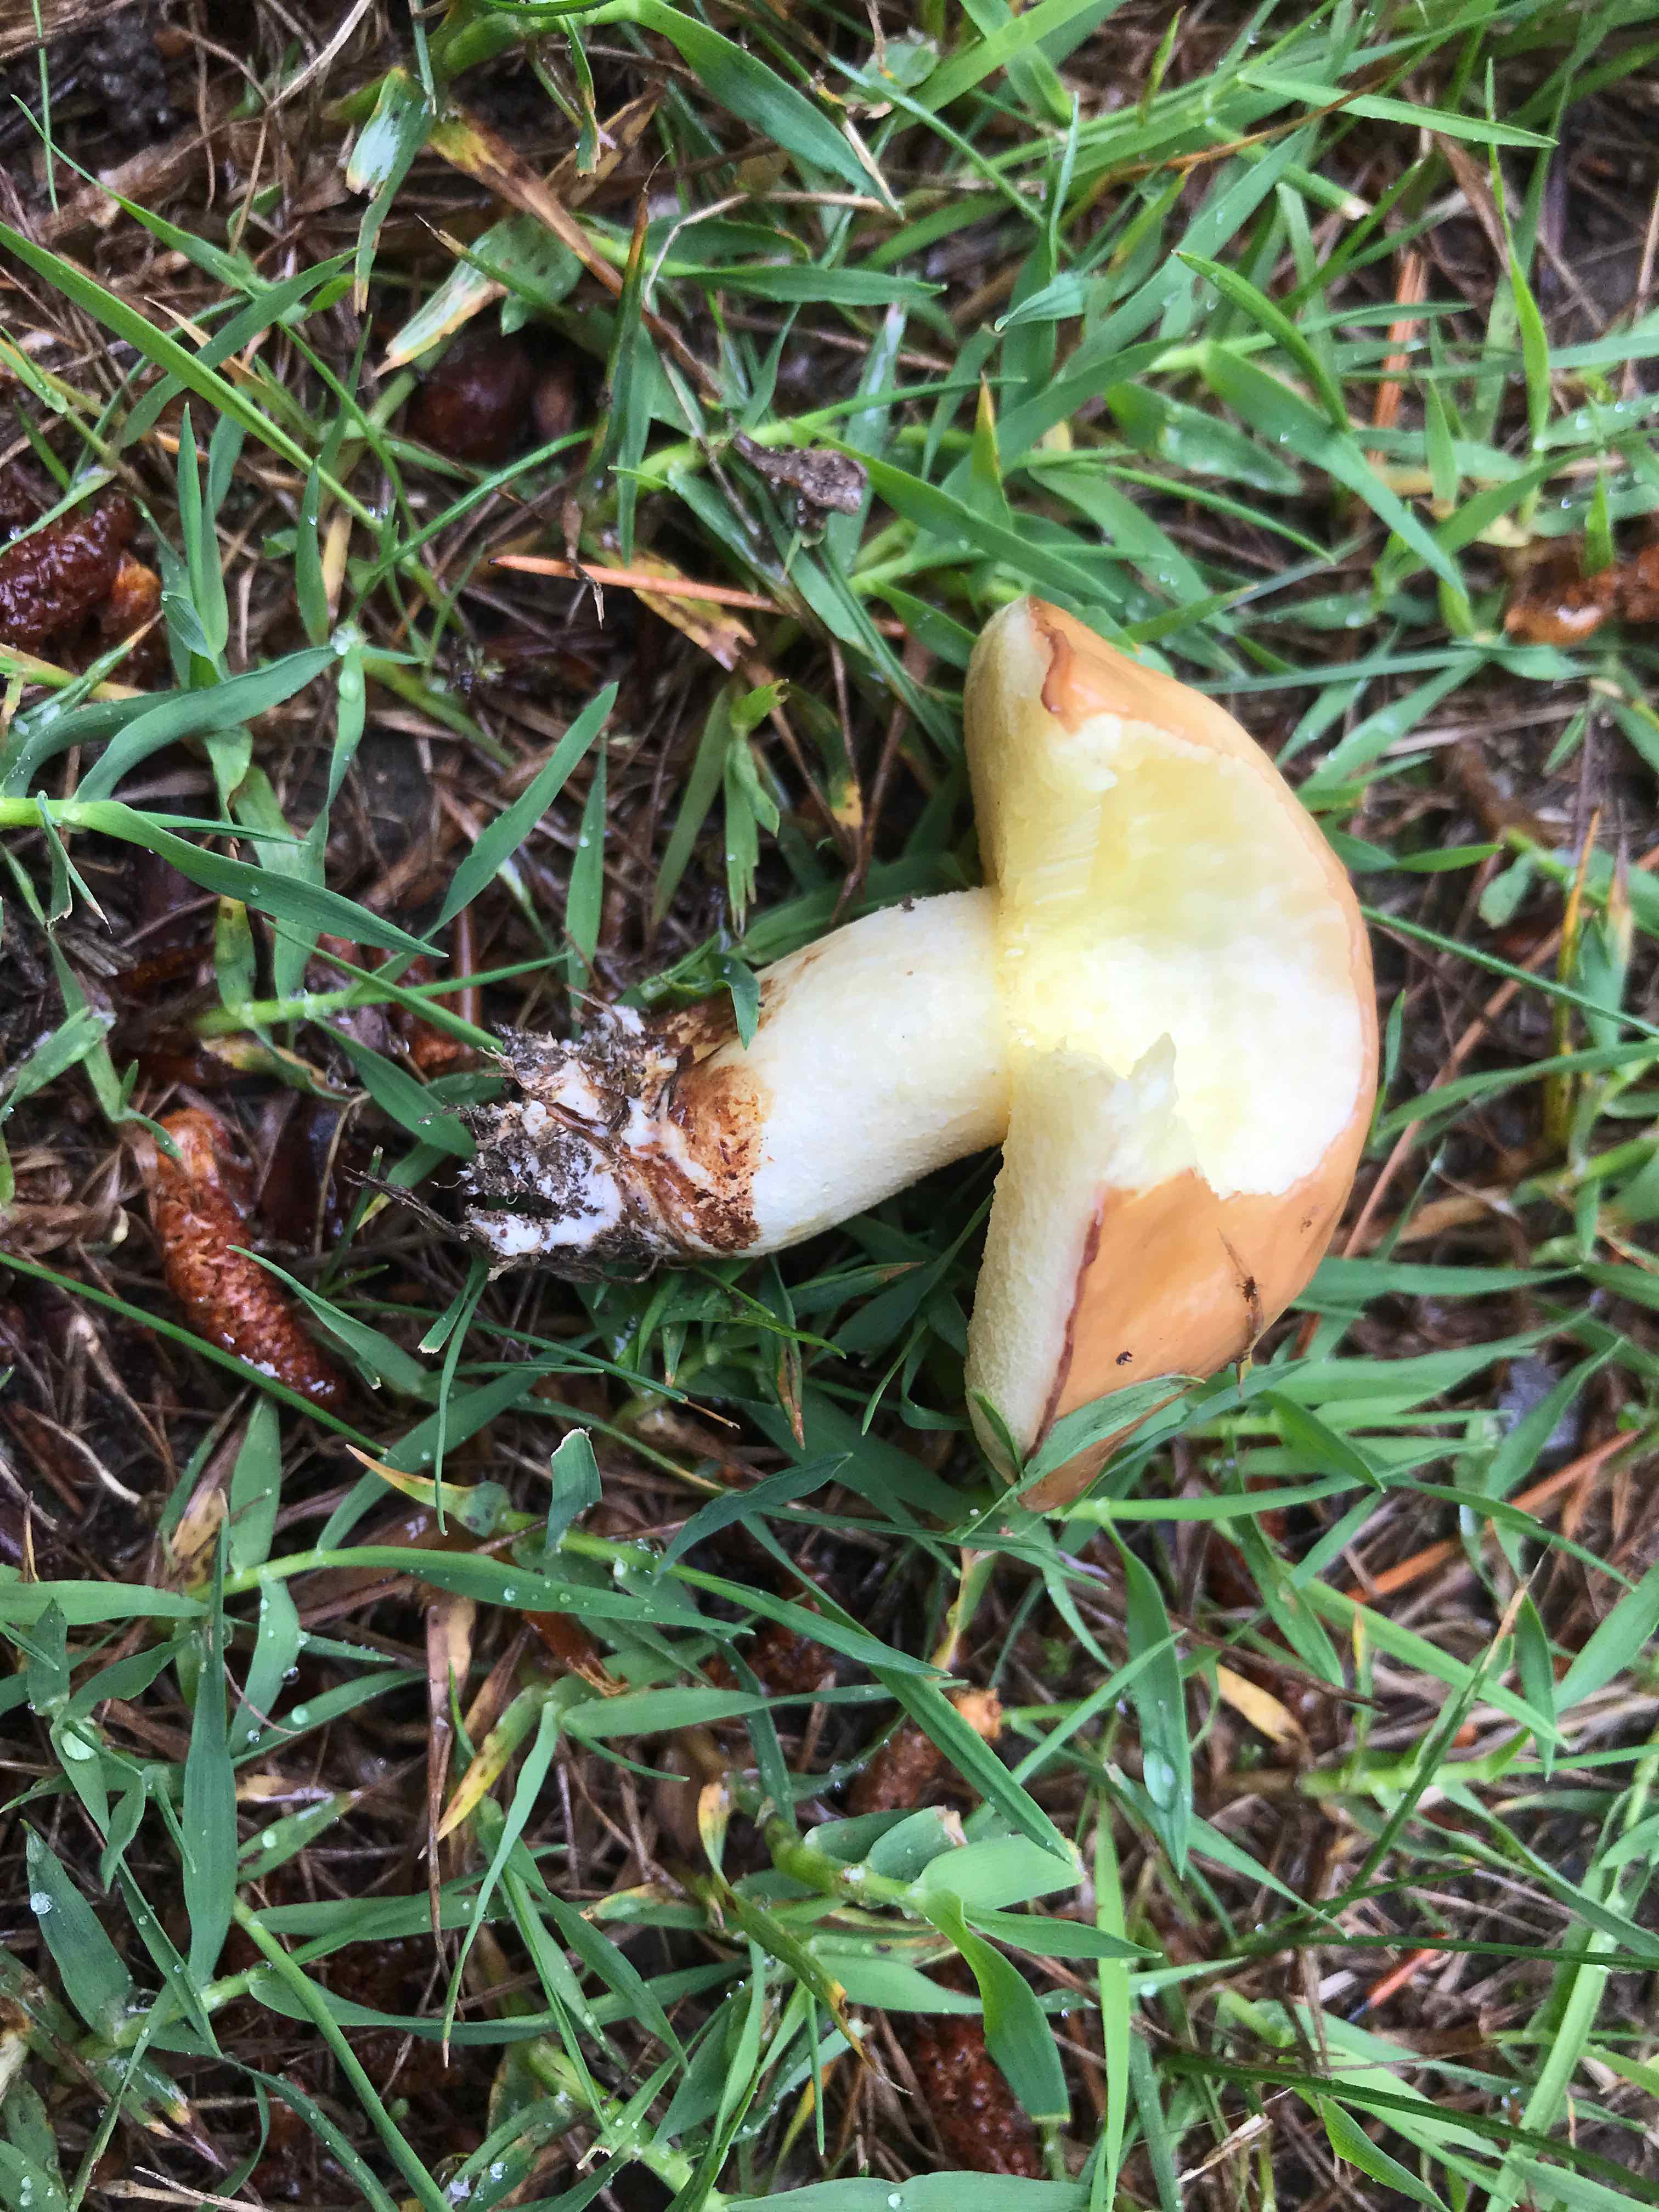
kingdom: Fungi
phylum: Basidiomycota
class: Agaricomycetes
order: Boletales
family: Suillaceae
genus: Suillus
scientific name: Suillus
